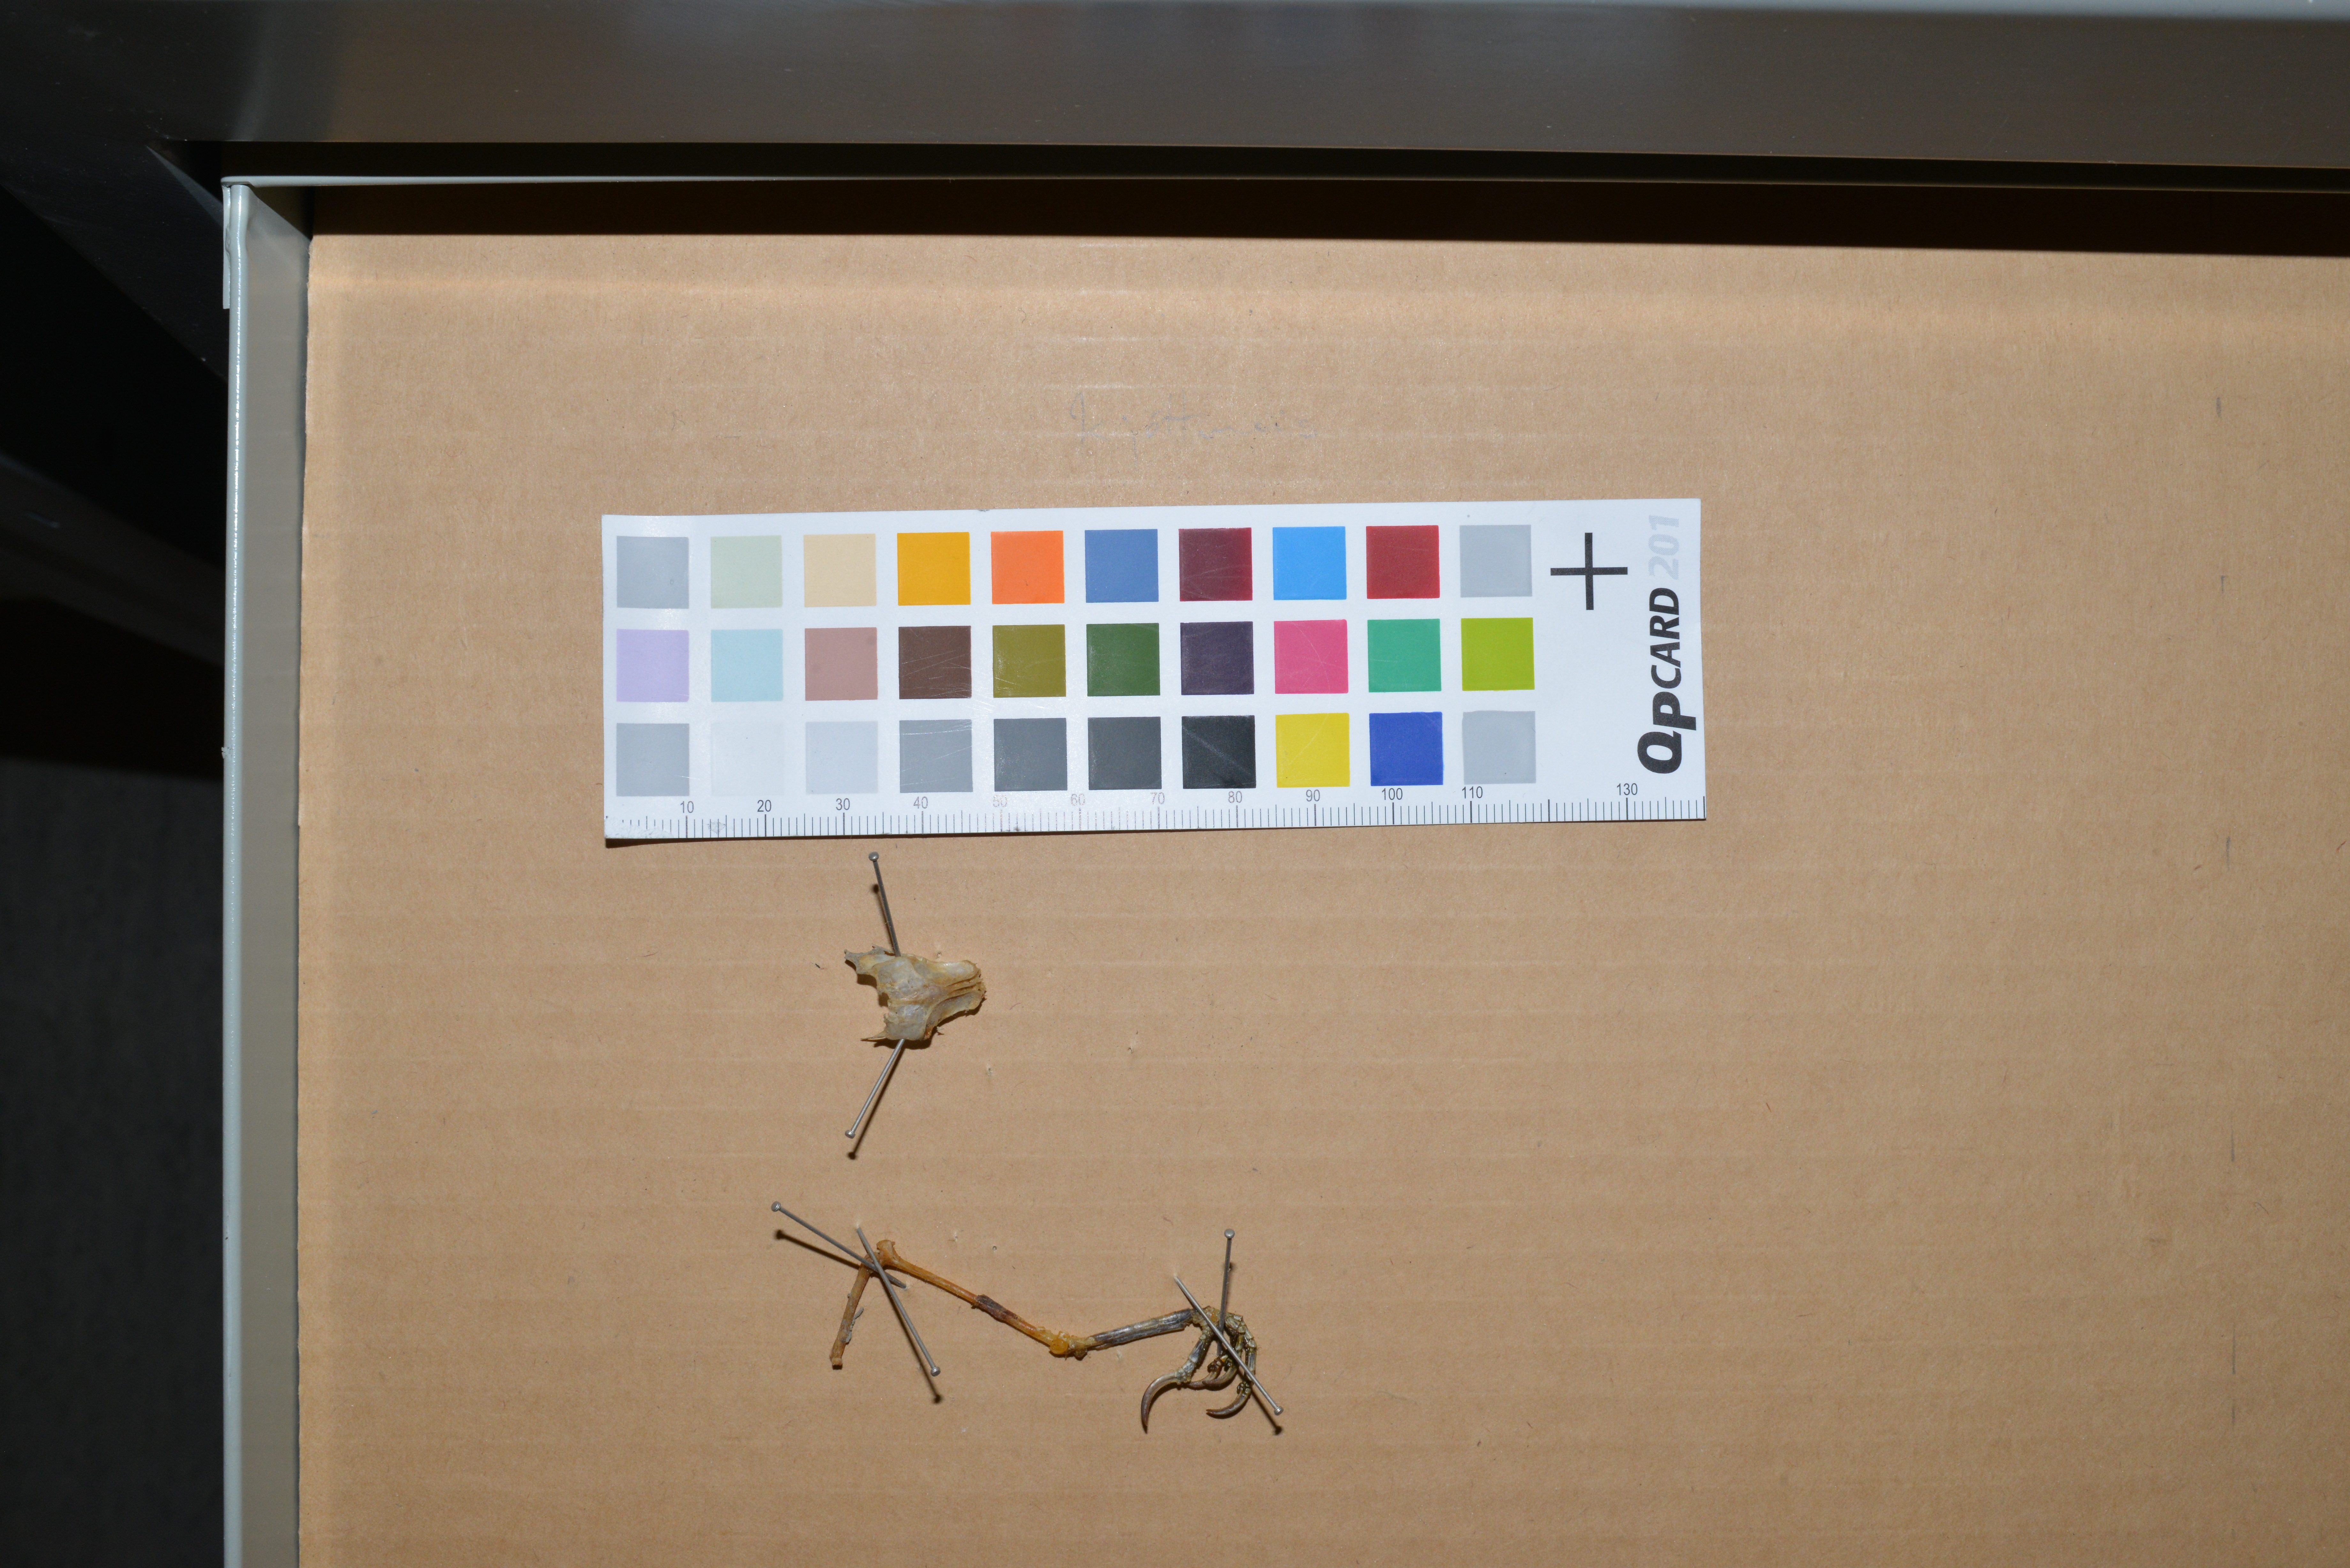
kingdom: Animalia
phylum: Chordata
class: Aves
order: Passeriformes
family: Paridae
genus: Parus
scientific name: Parus major
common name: Great tit
